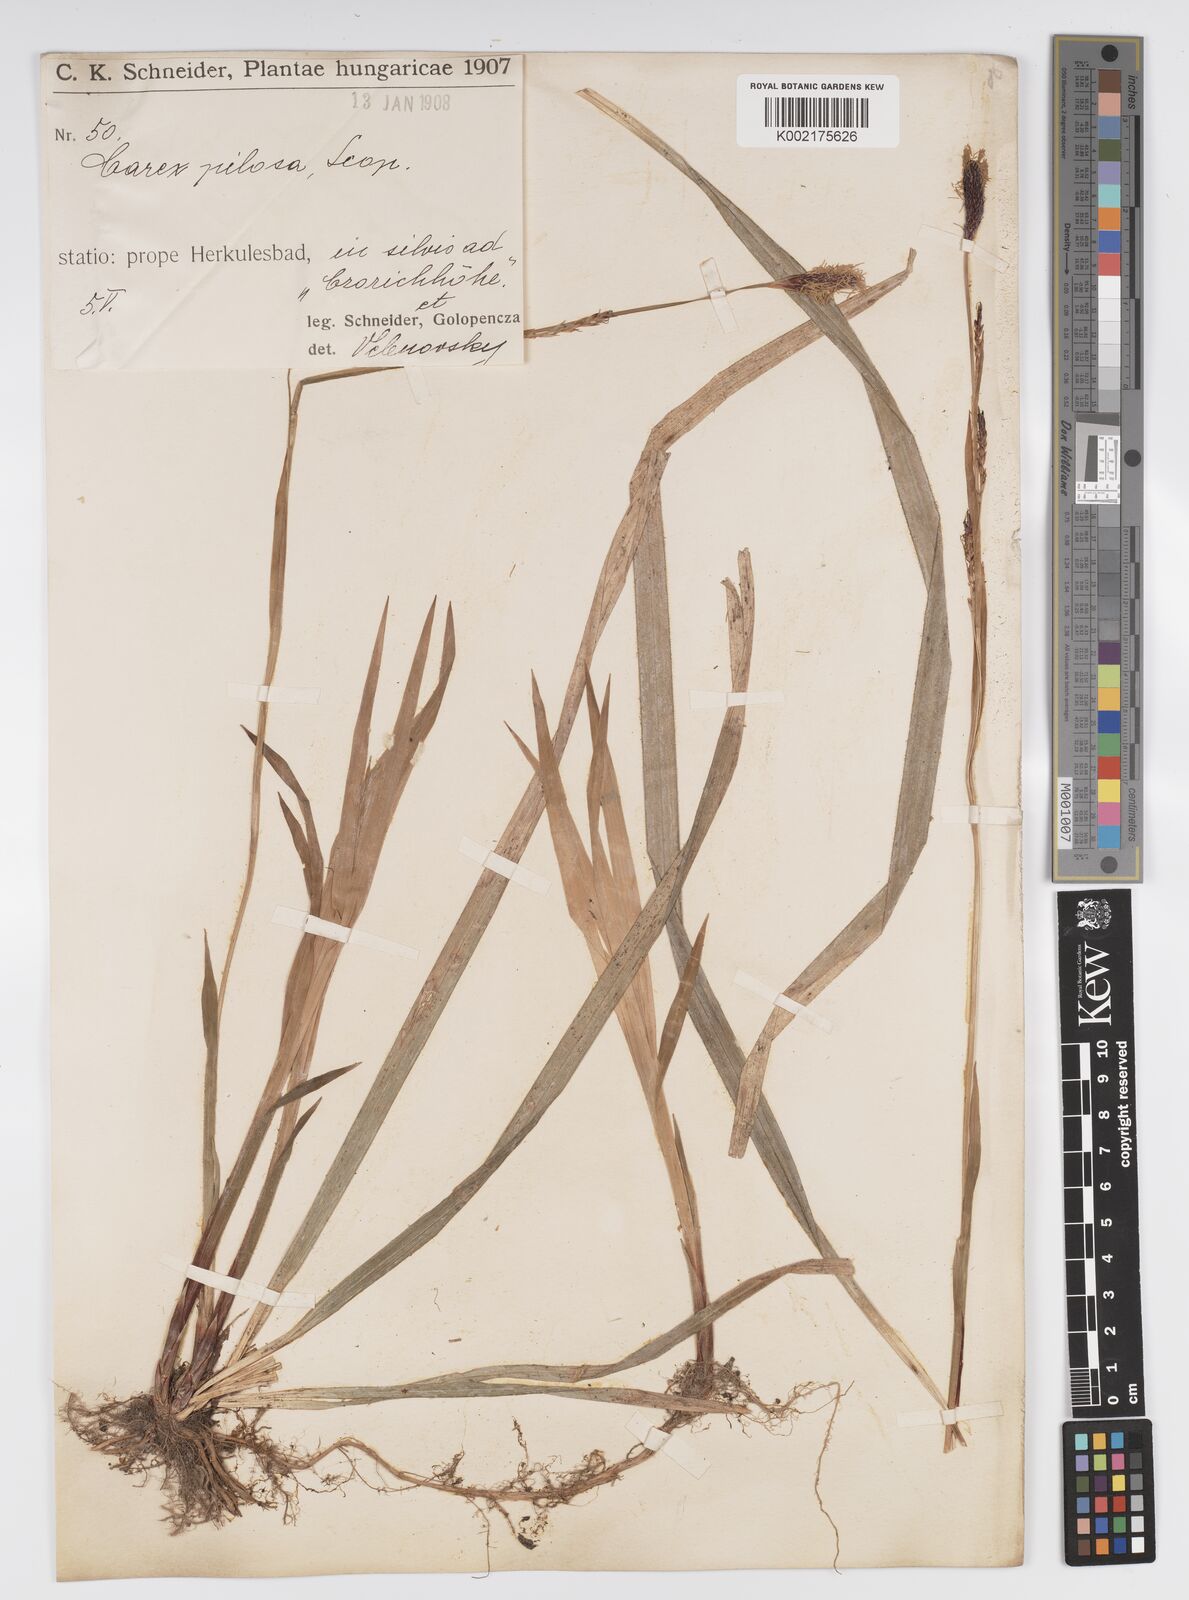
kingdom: Plantae
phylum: Tracheophyta
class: Liliopsida
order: Poales
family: Cyperaceae
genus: Carex
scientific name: Carex pilosa
